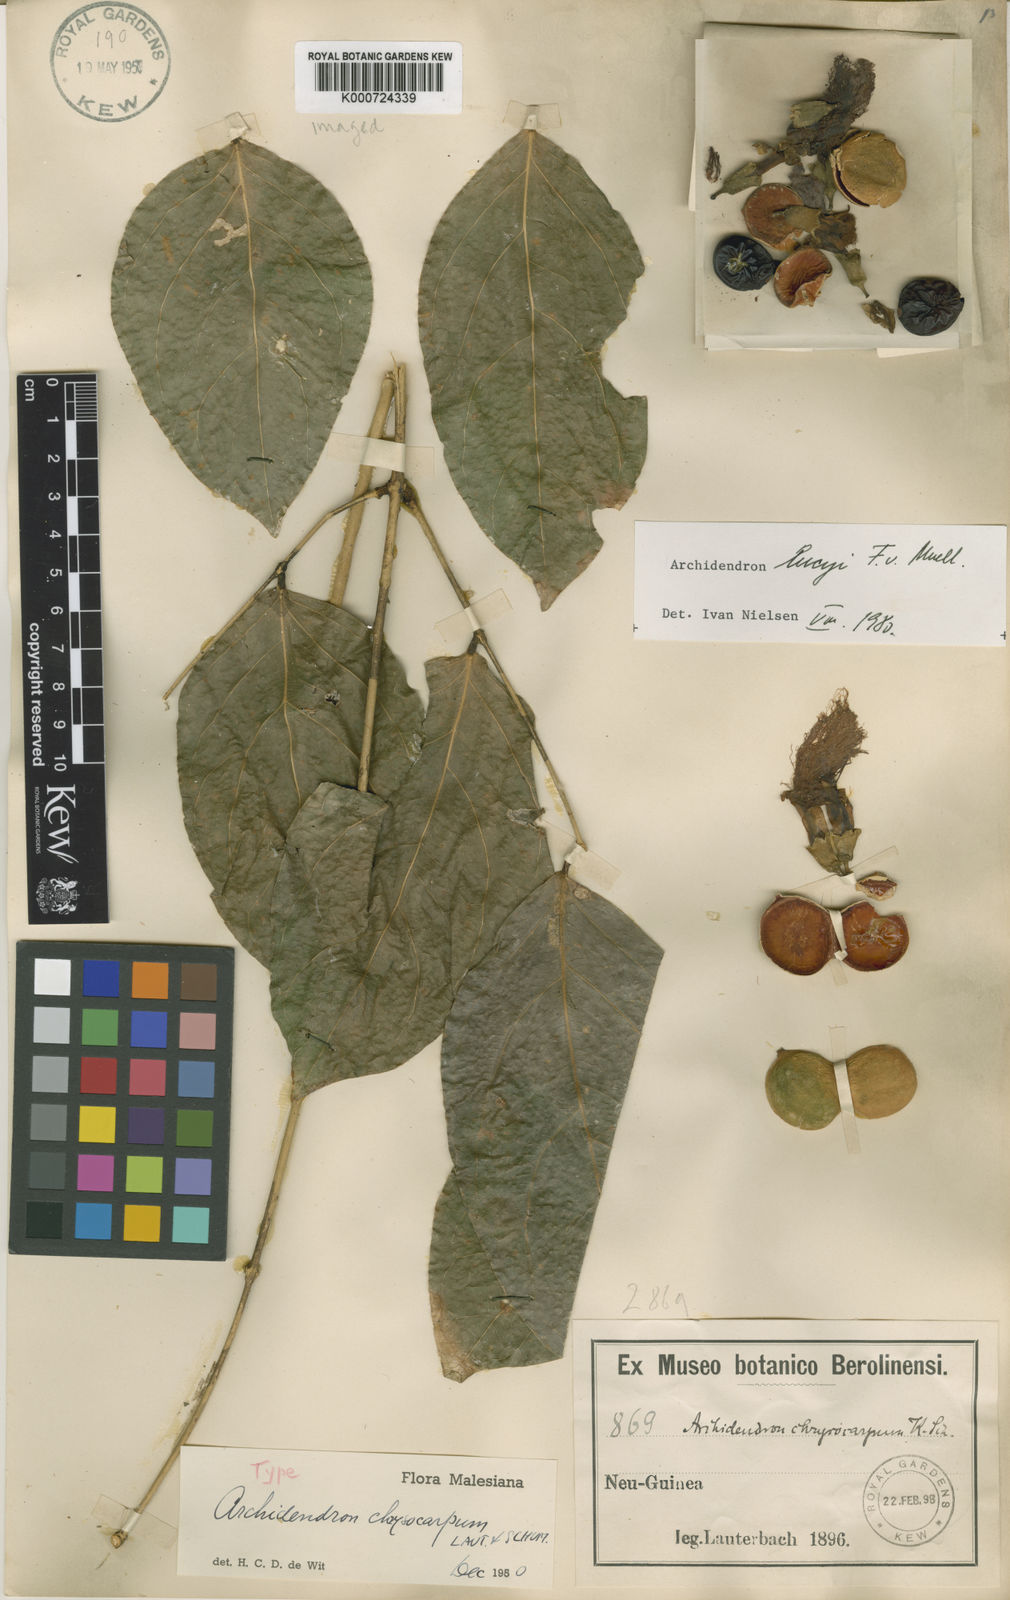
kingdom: Plantae
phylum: Tracheophyta
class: Magnoliopsida
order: Fabales
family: Fabaceae
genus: Archidendron
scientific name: Archidendron lucyi
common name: Scarlet bean
